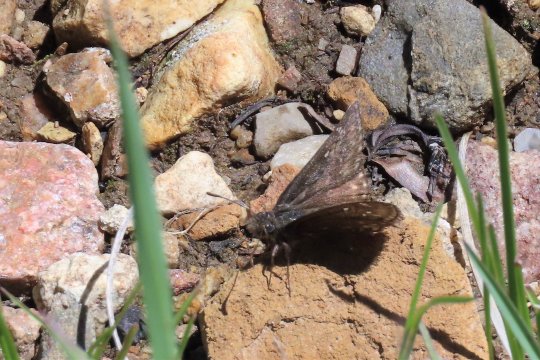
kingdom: Animalia
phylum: Arthropoda
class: Insecta
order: Lepidoptera
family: Hesperiidae
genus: Gesta
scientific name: Gesta
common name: Persius Duskywing
